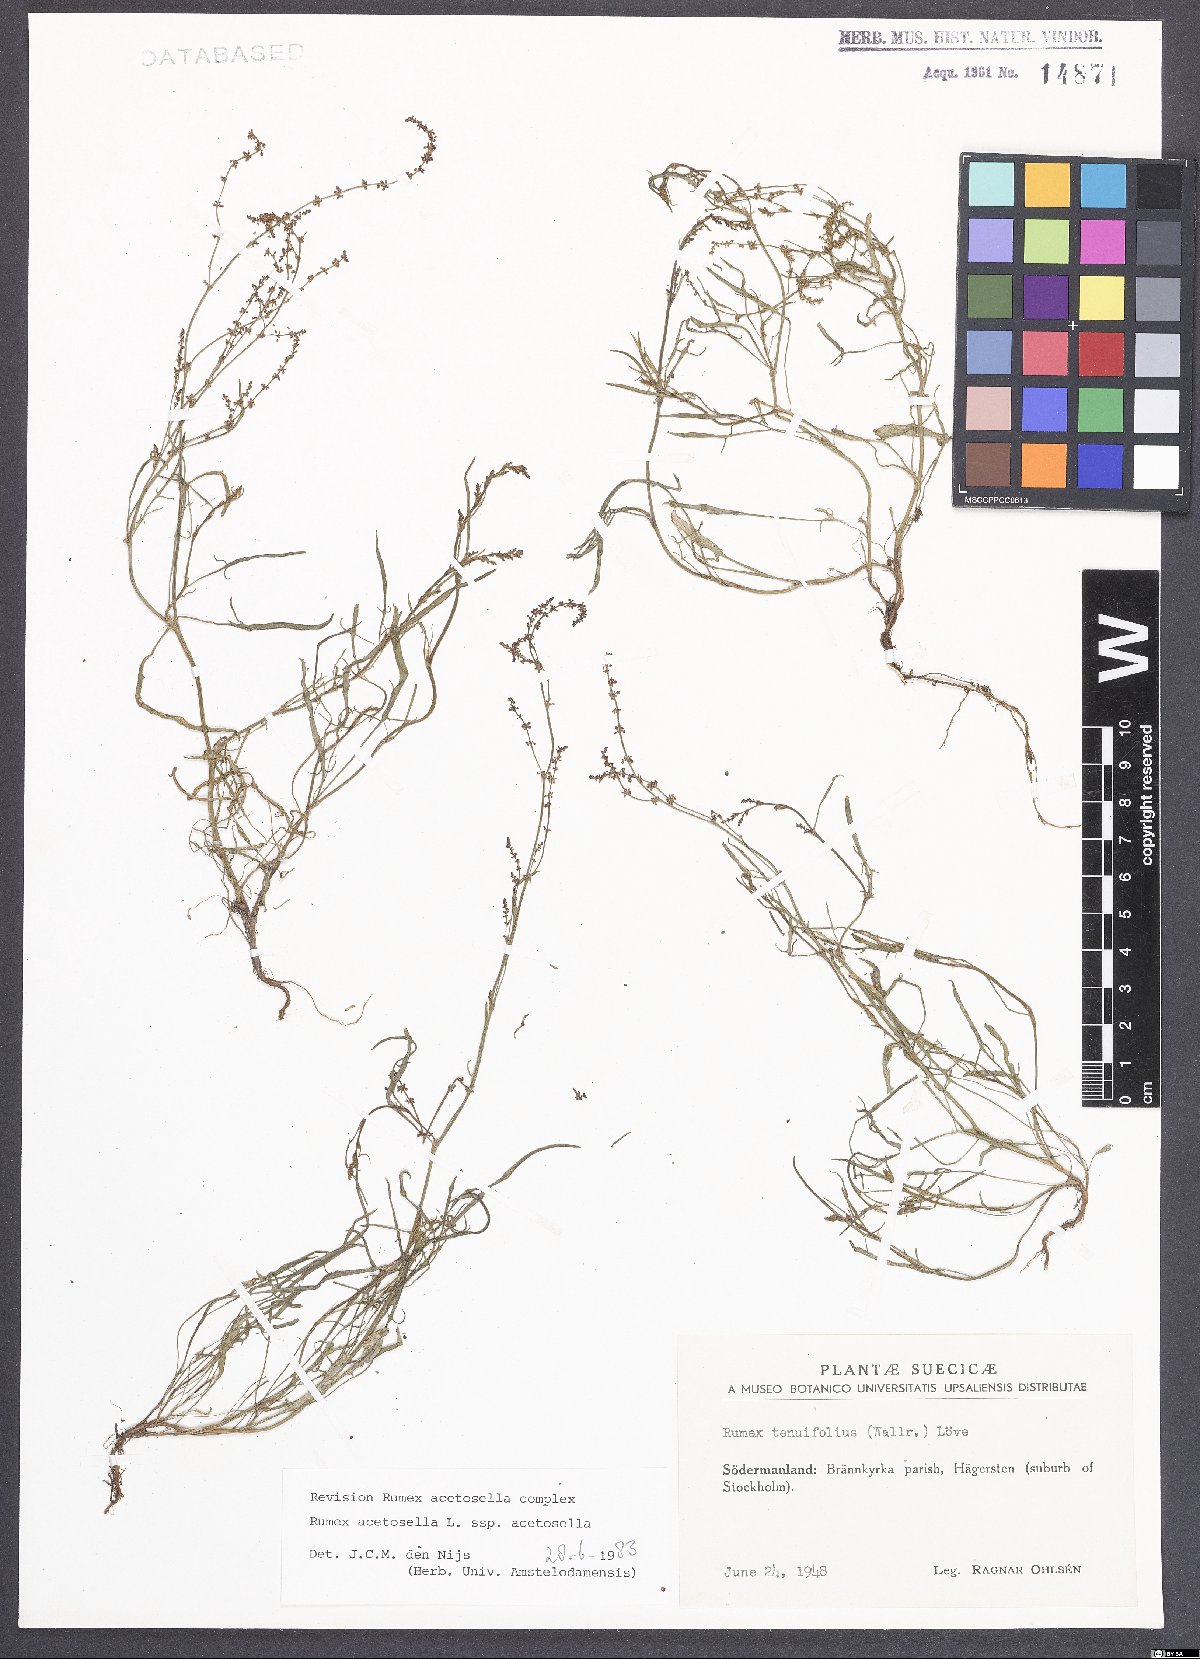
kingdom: Plantae
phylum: Tracheophyta
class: Magnoliopsida
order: Caryophyllales
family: Polygonaceae
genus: Rumex
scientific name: Rumex acetosella
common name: Common sheep sorrel
